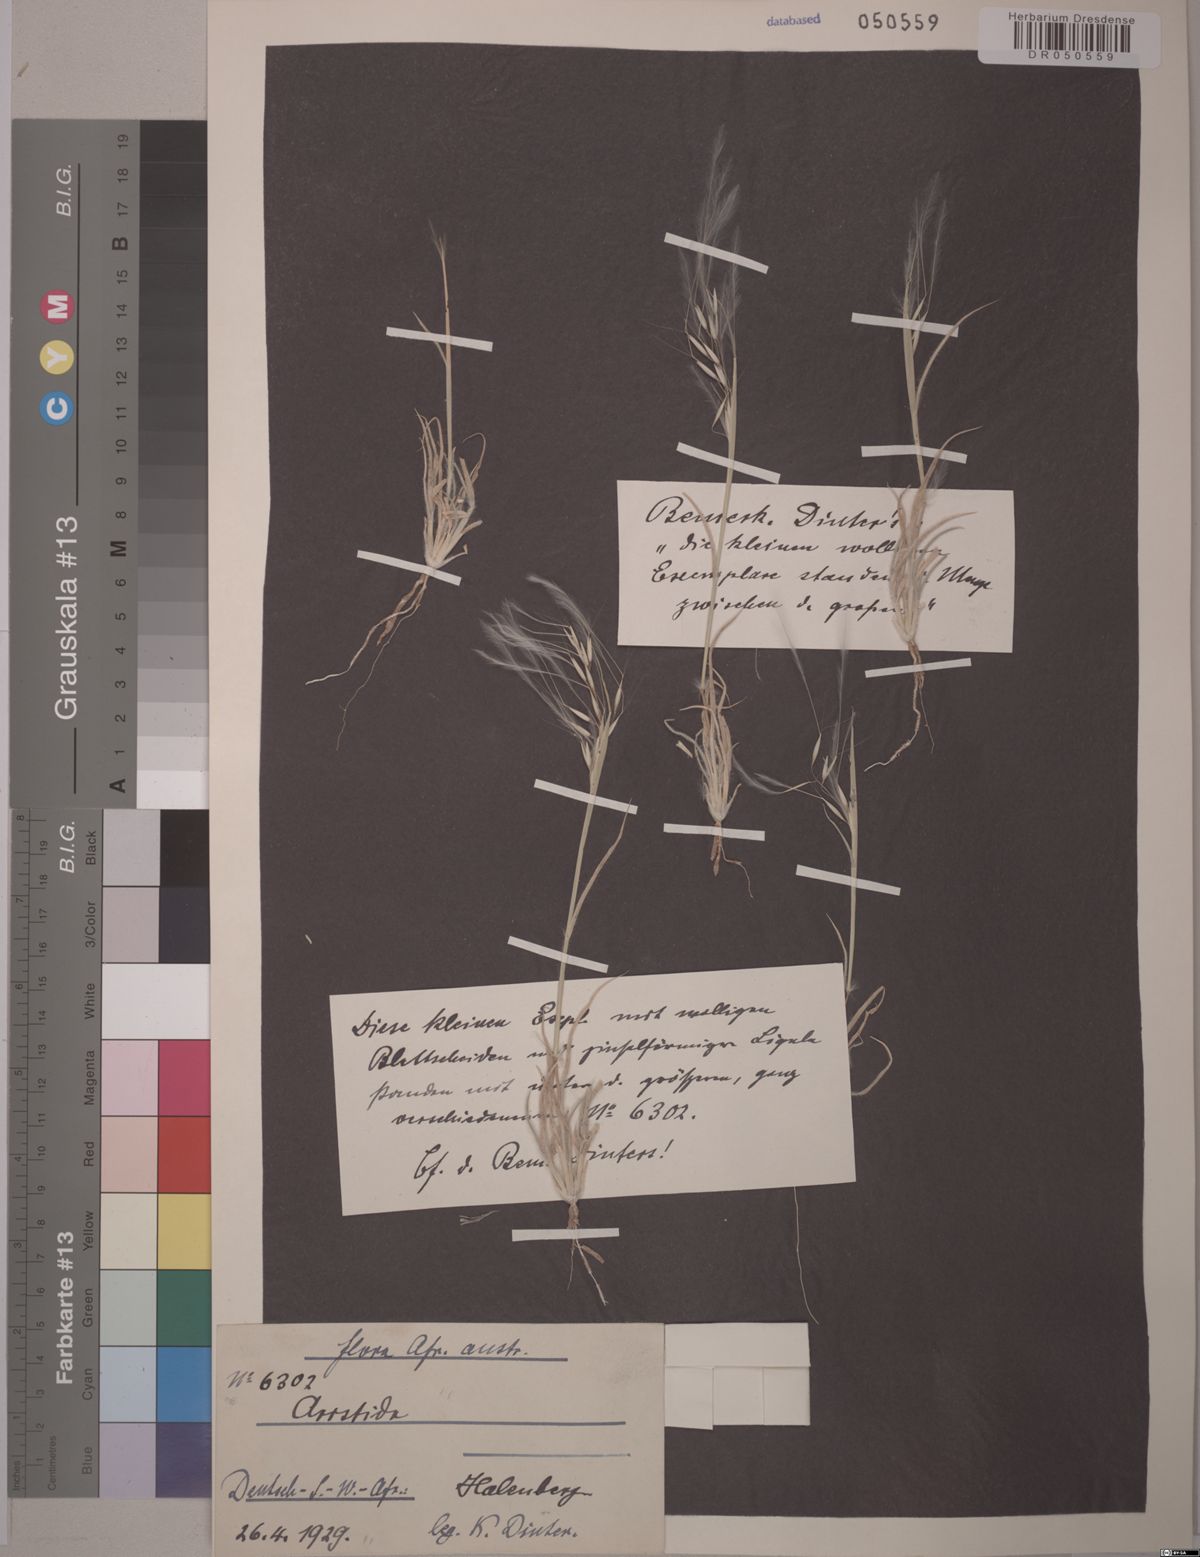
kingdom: Plantae
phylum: Tracheophyta
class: Liliopsida
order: Poales
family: Poaceae
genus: Stipagrostis
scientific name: Stipagrostis ciliata
